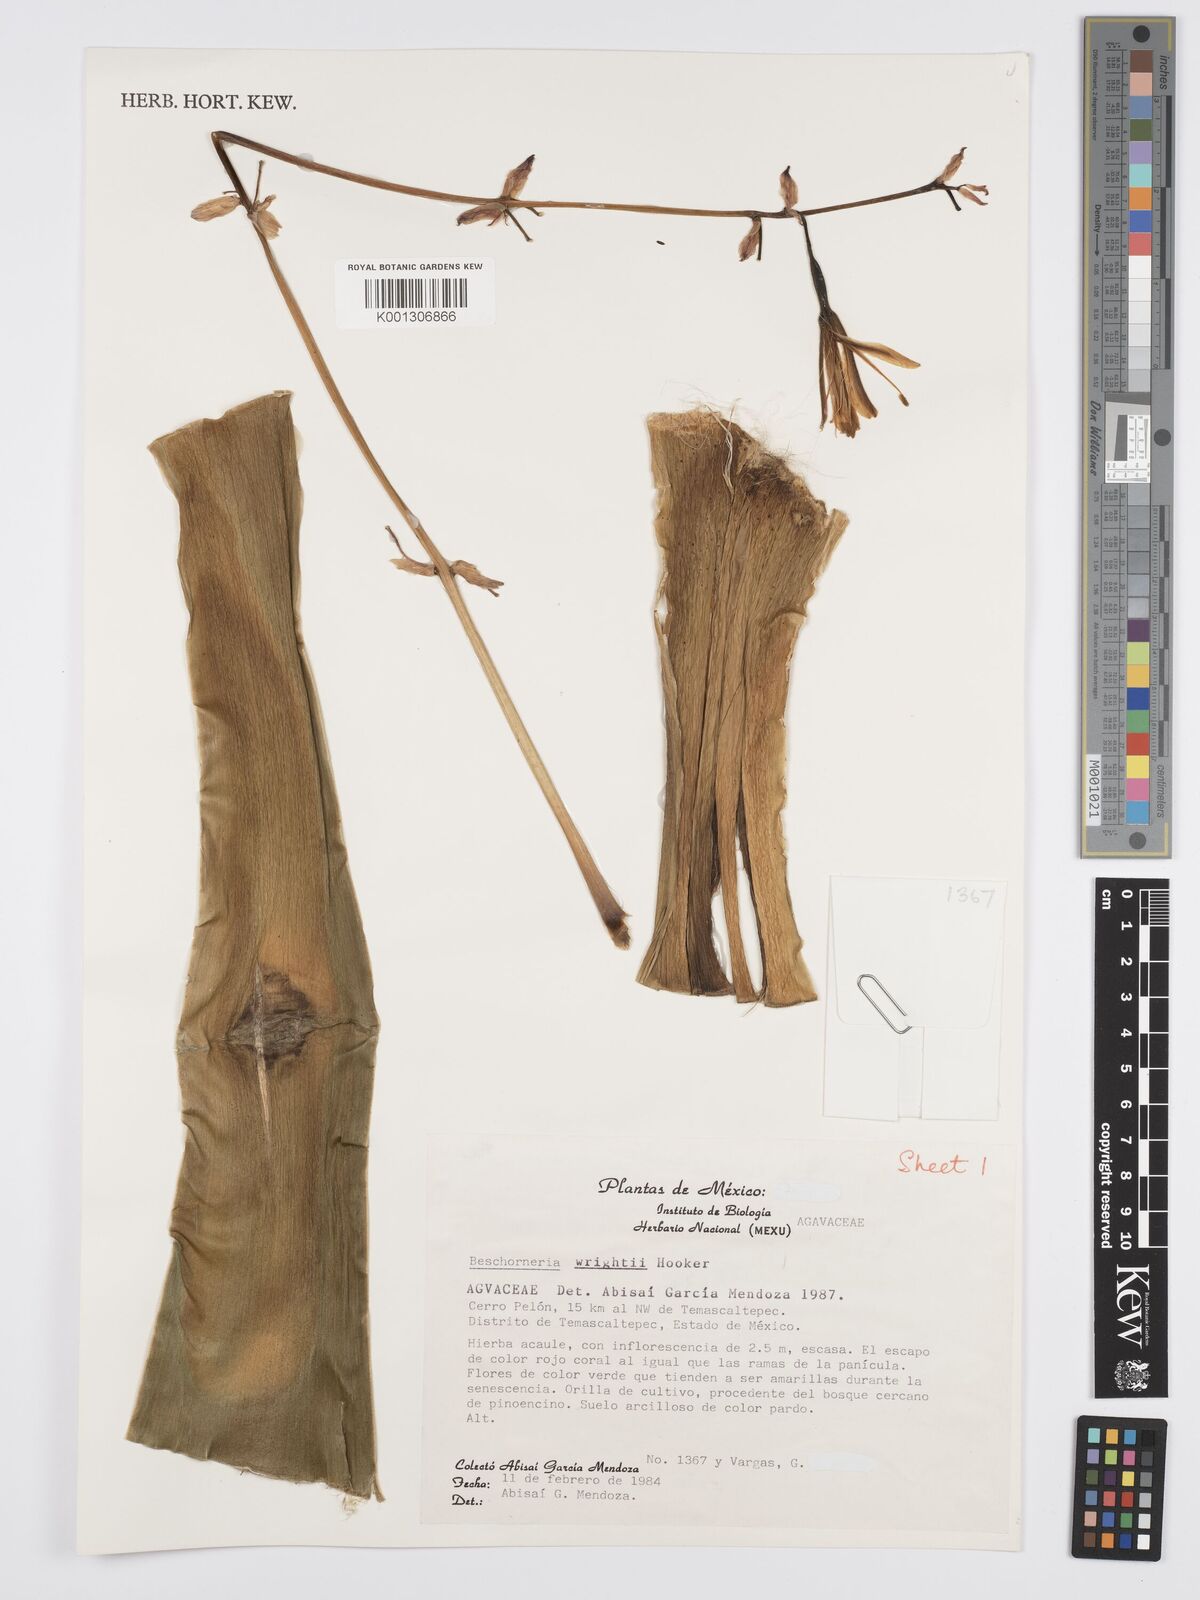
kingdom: Plantae
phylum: Tracheophyta
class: Liliopsida
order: Asparagales
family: Asparagaceae
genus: Beschorneria
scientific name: Beschorneria wrightii
